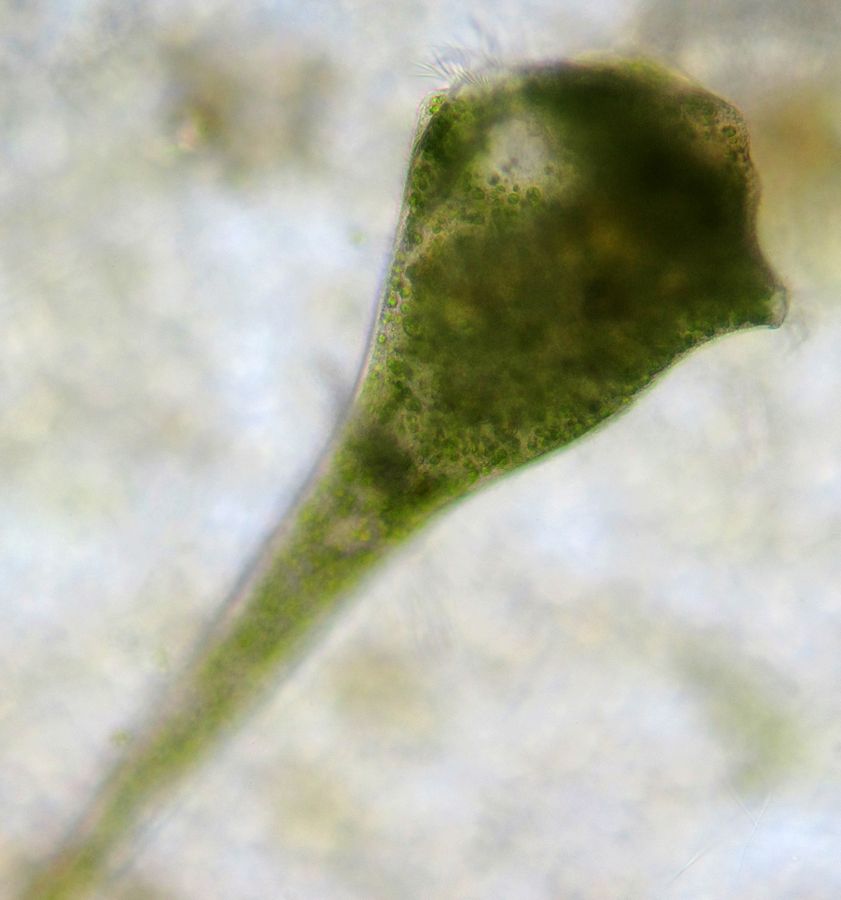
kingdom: Chromista
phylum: Ciliophora
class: Heterotrichea
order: Heterotrichida
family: Stentoridae
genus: Stentor
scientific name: Stentor polymorphus
